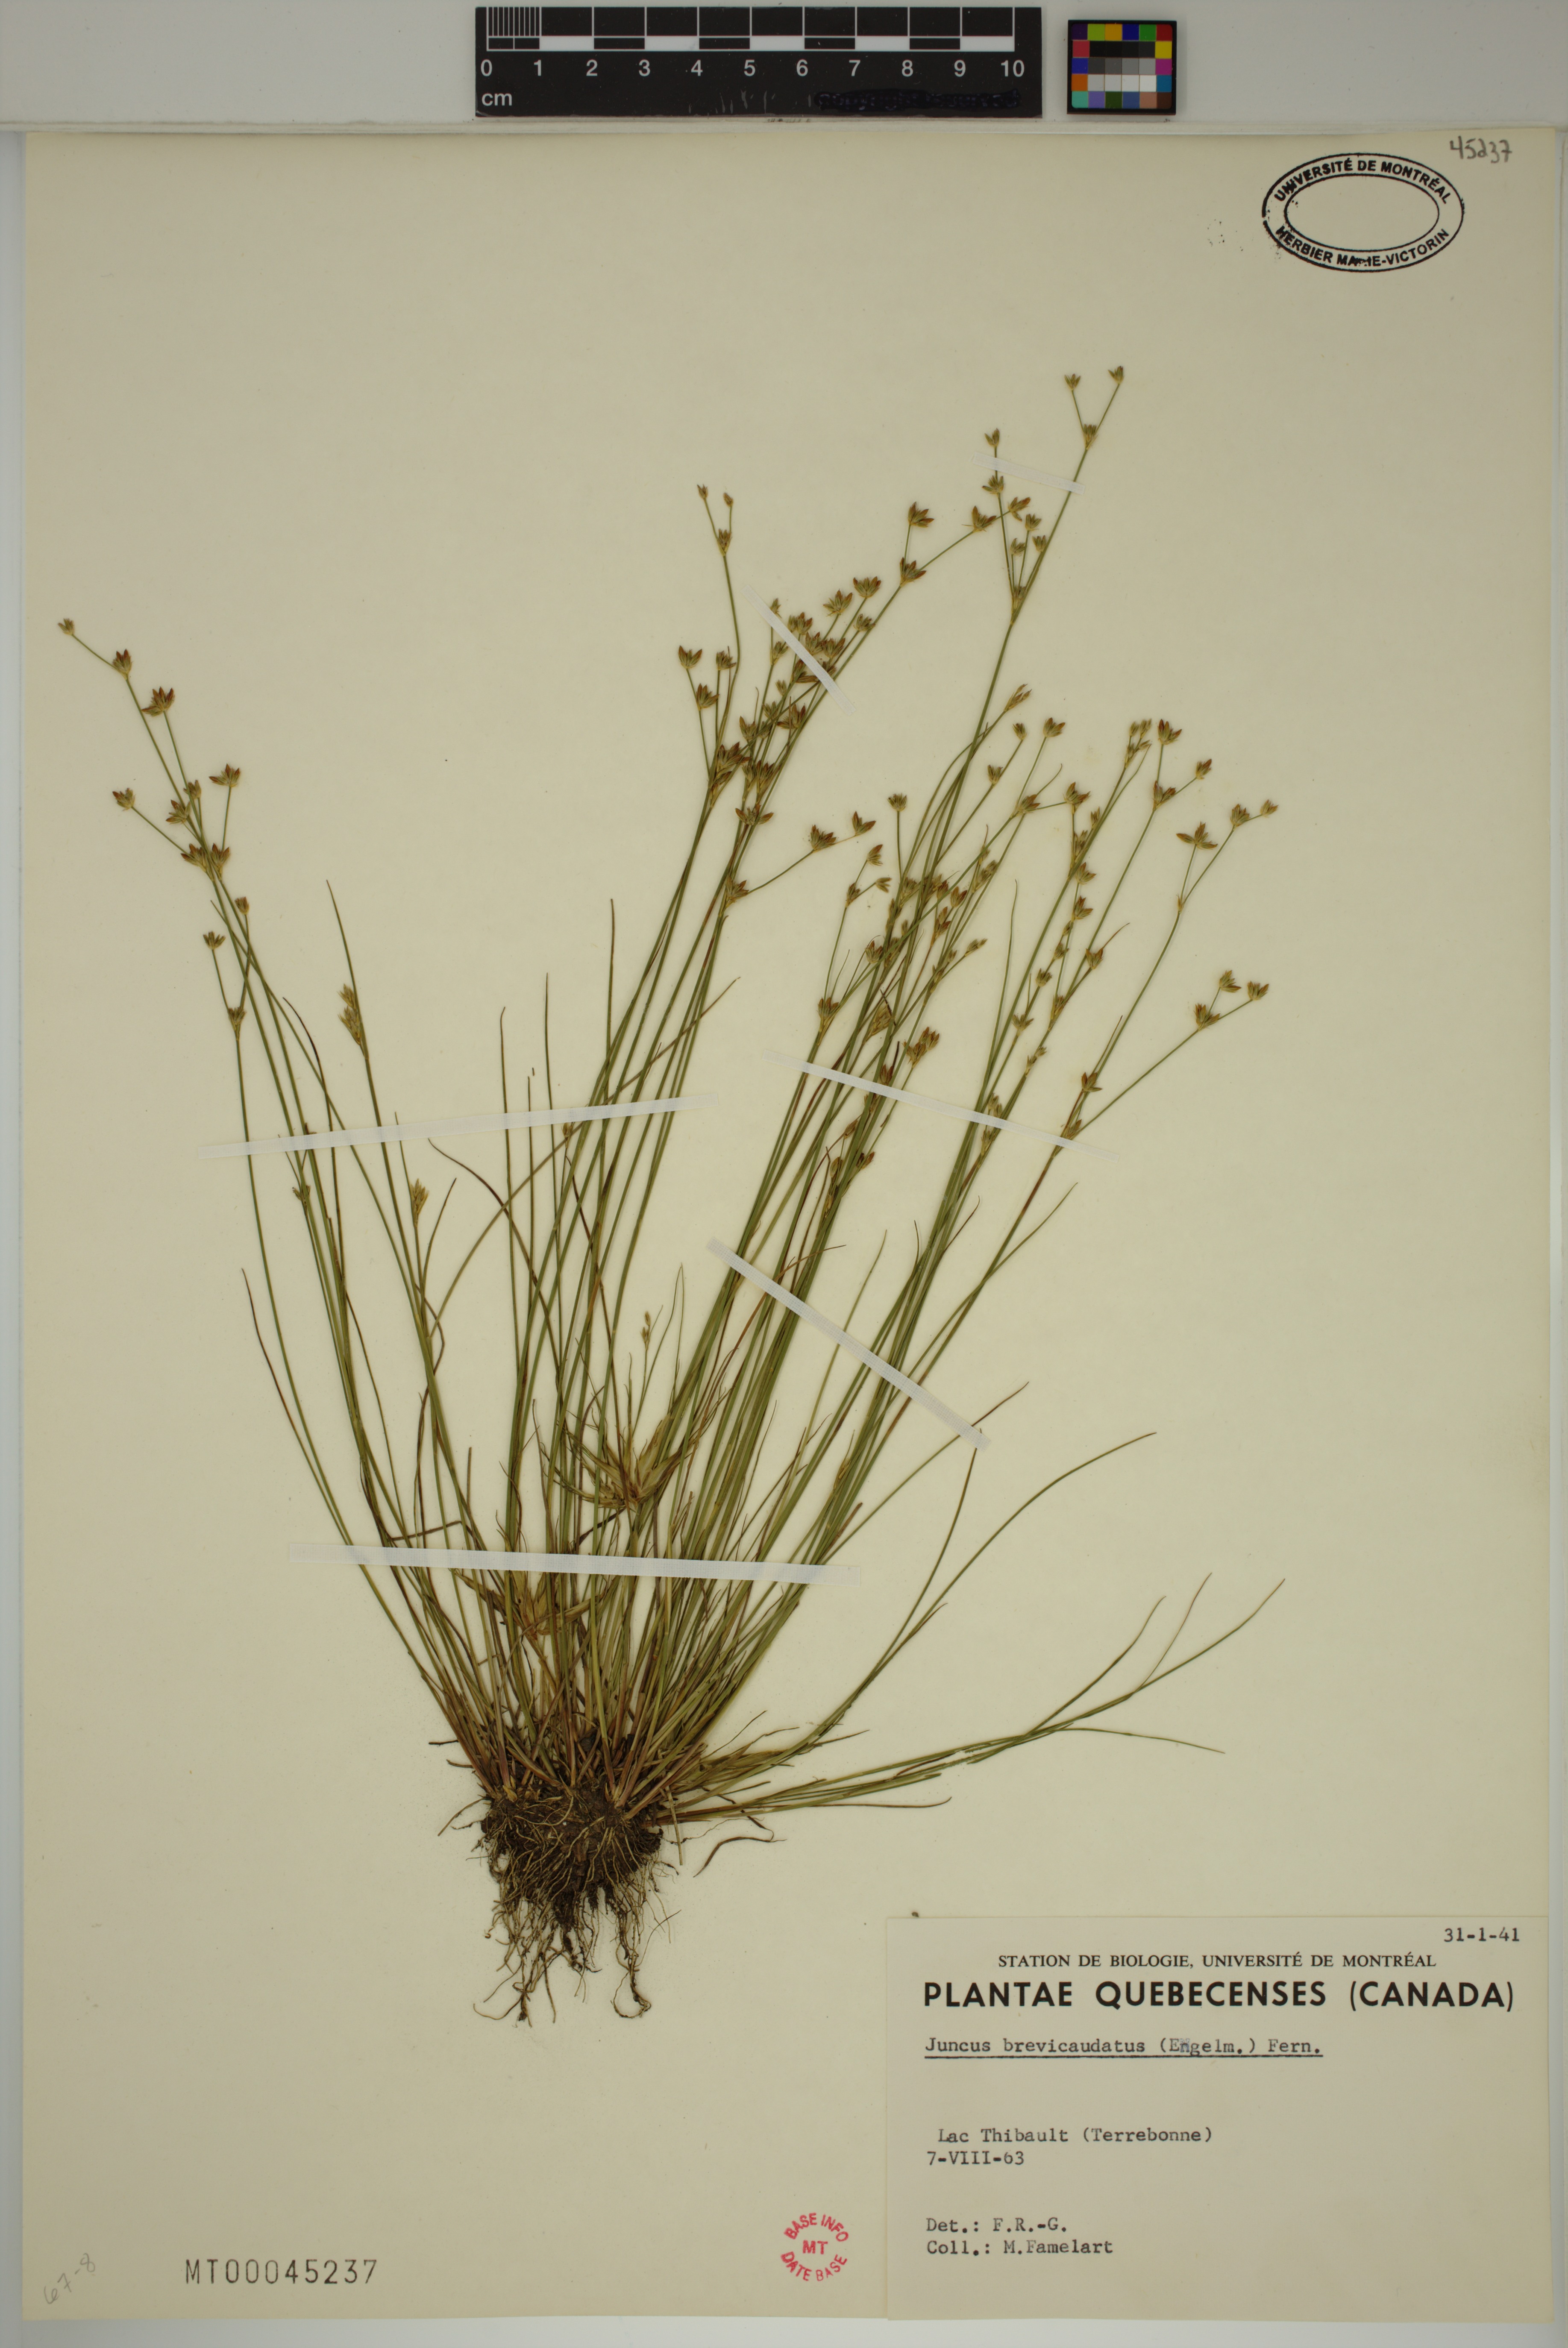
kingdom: Plantae
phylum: Tracheophyta
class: Liliopsida
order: Poales
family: Juncaceae
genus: Juncus
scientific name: Juncus brevicaudatus
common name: Narrow-panicle rush
